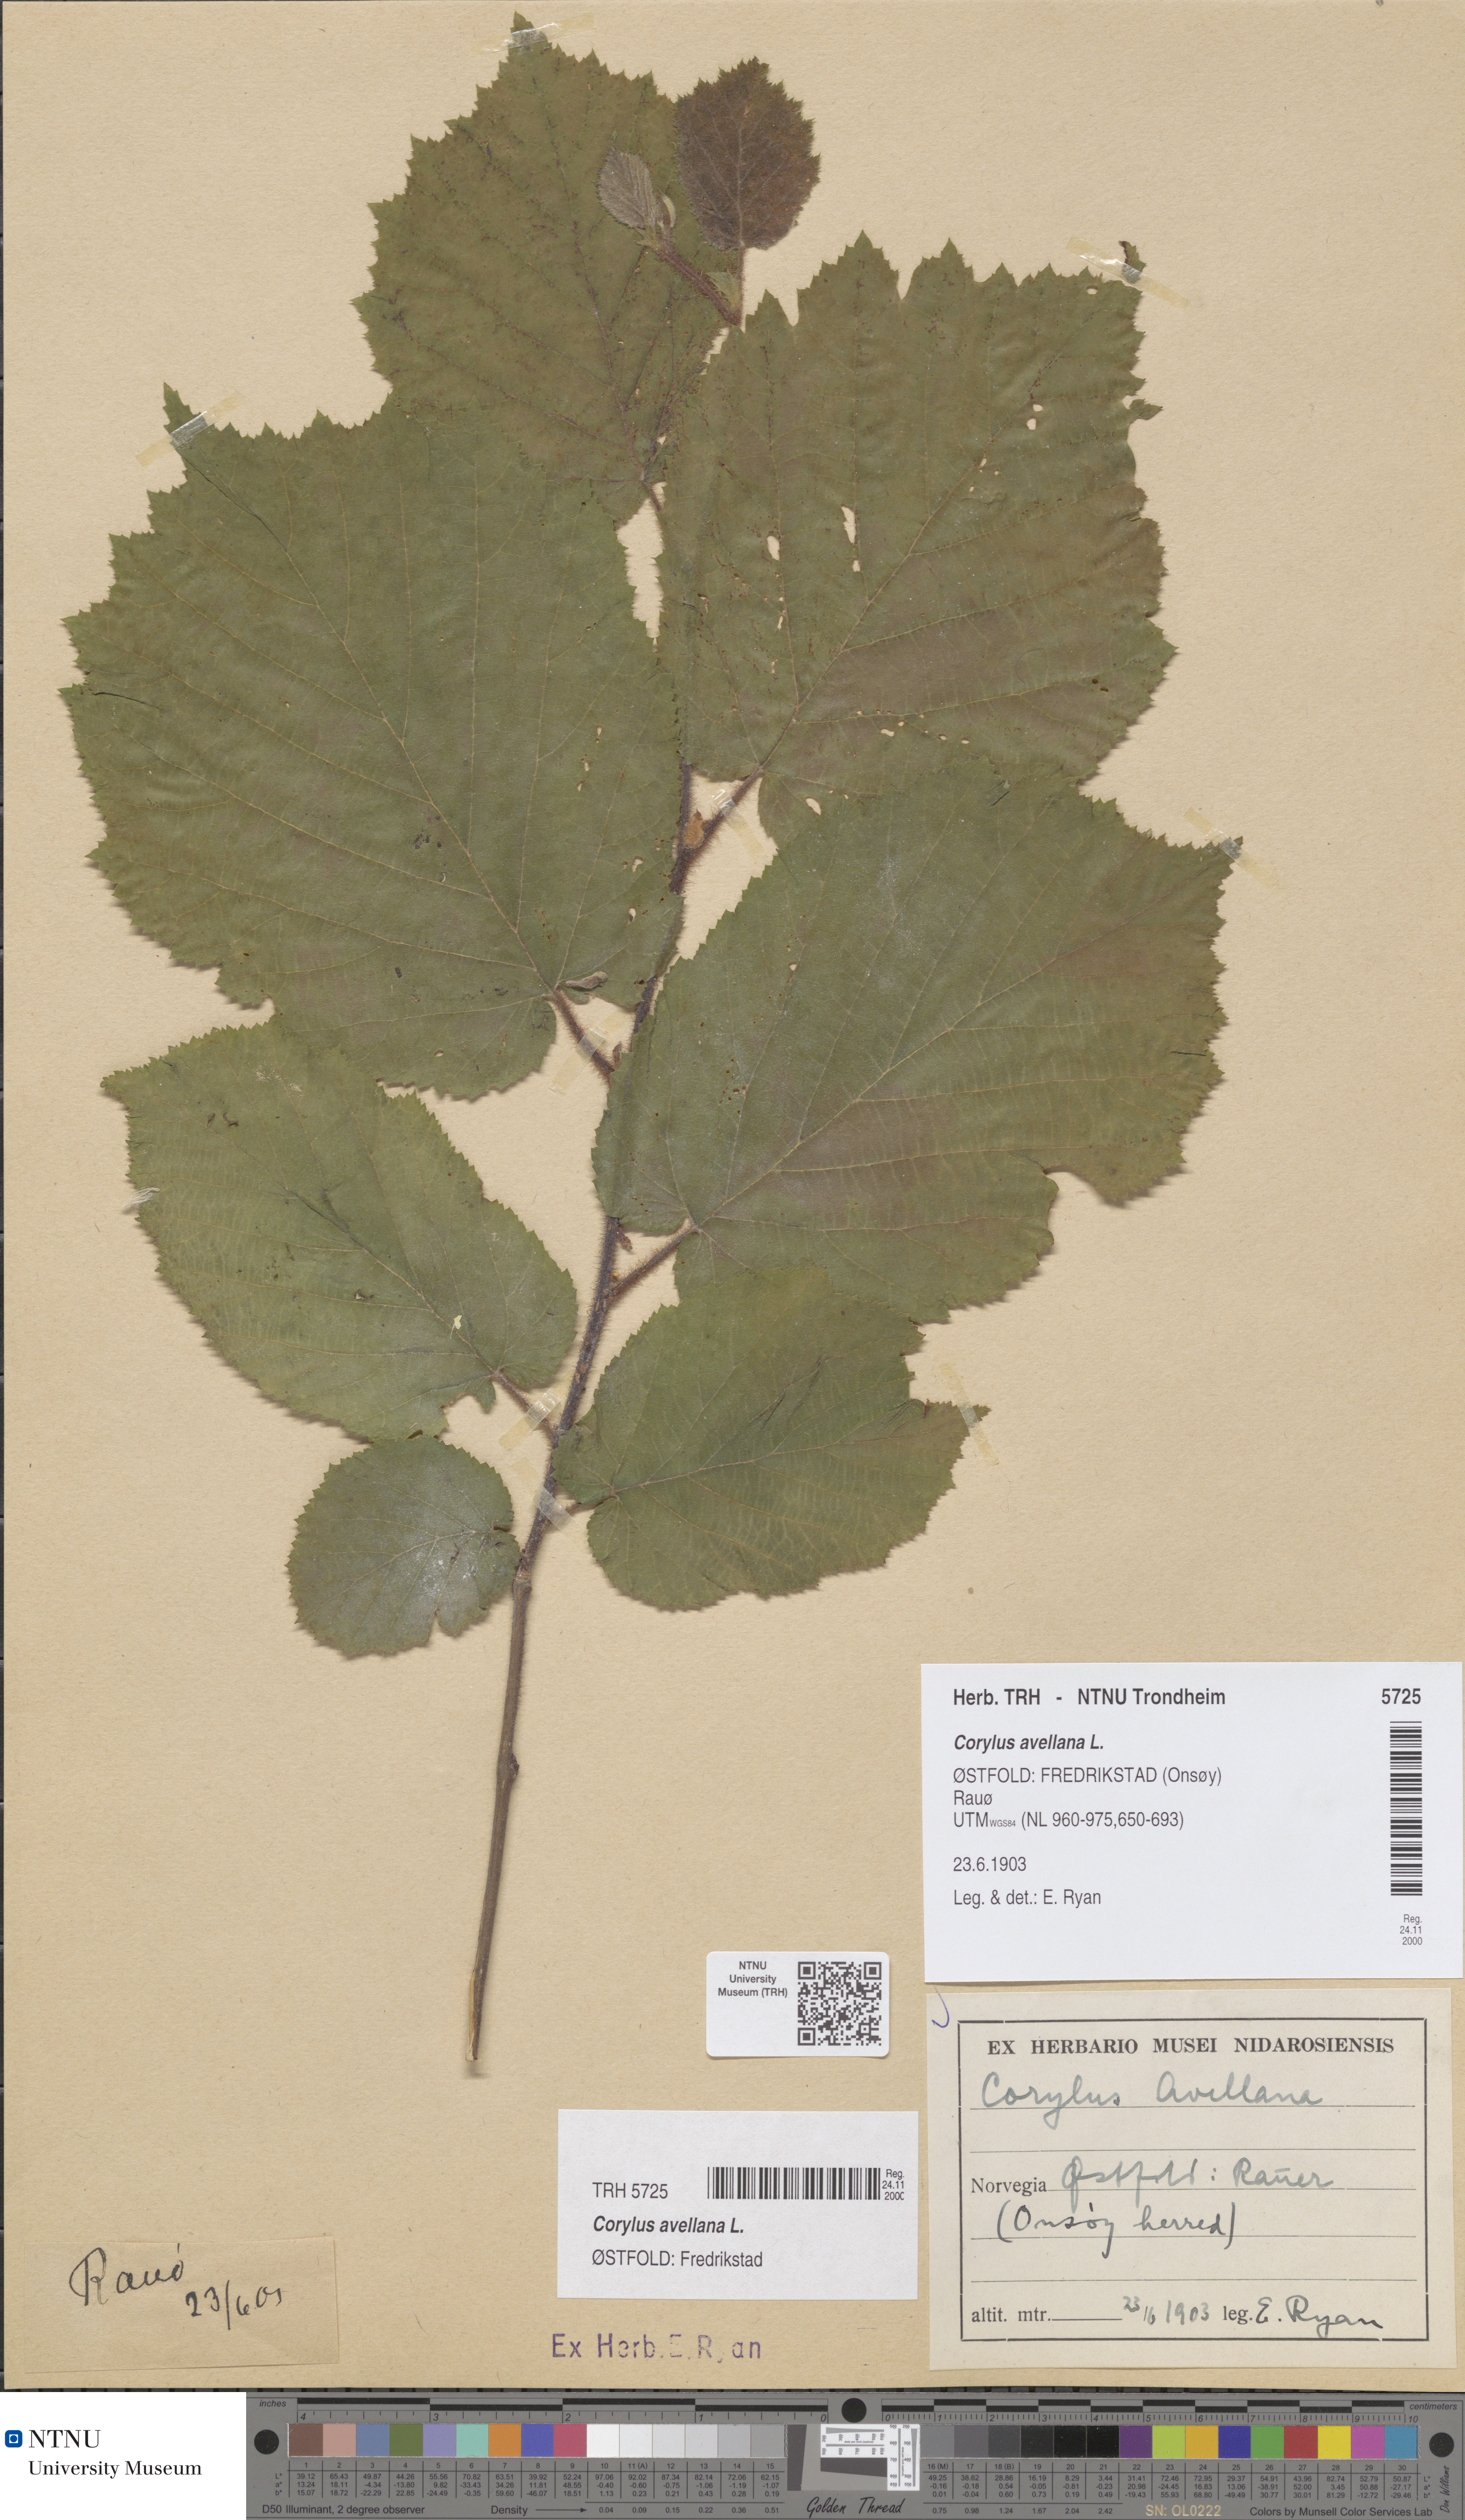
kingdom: Plantae
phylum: Tracheophyta
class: Magnoliopsida
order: Fagales
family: Betulaceae
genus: Corylus
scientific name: Corylus avellana
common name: European hazel
